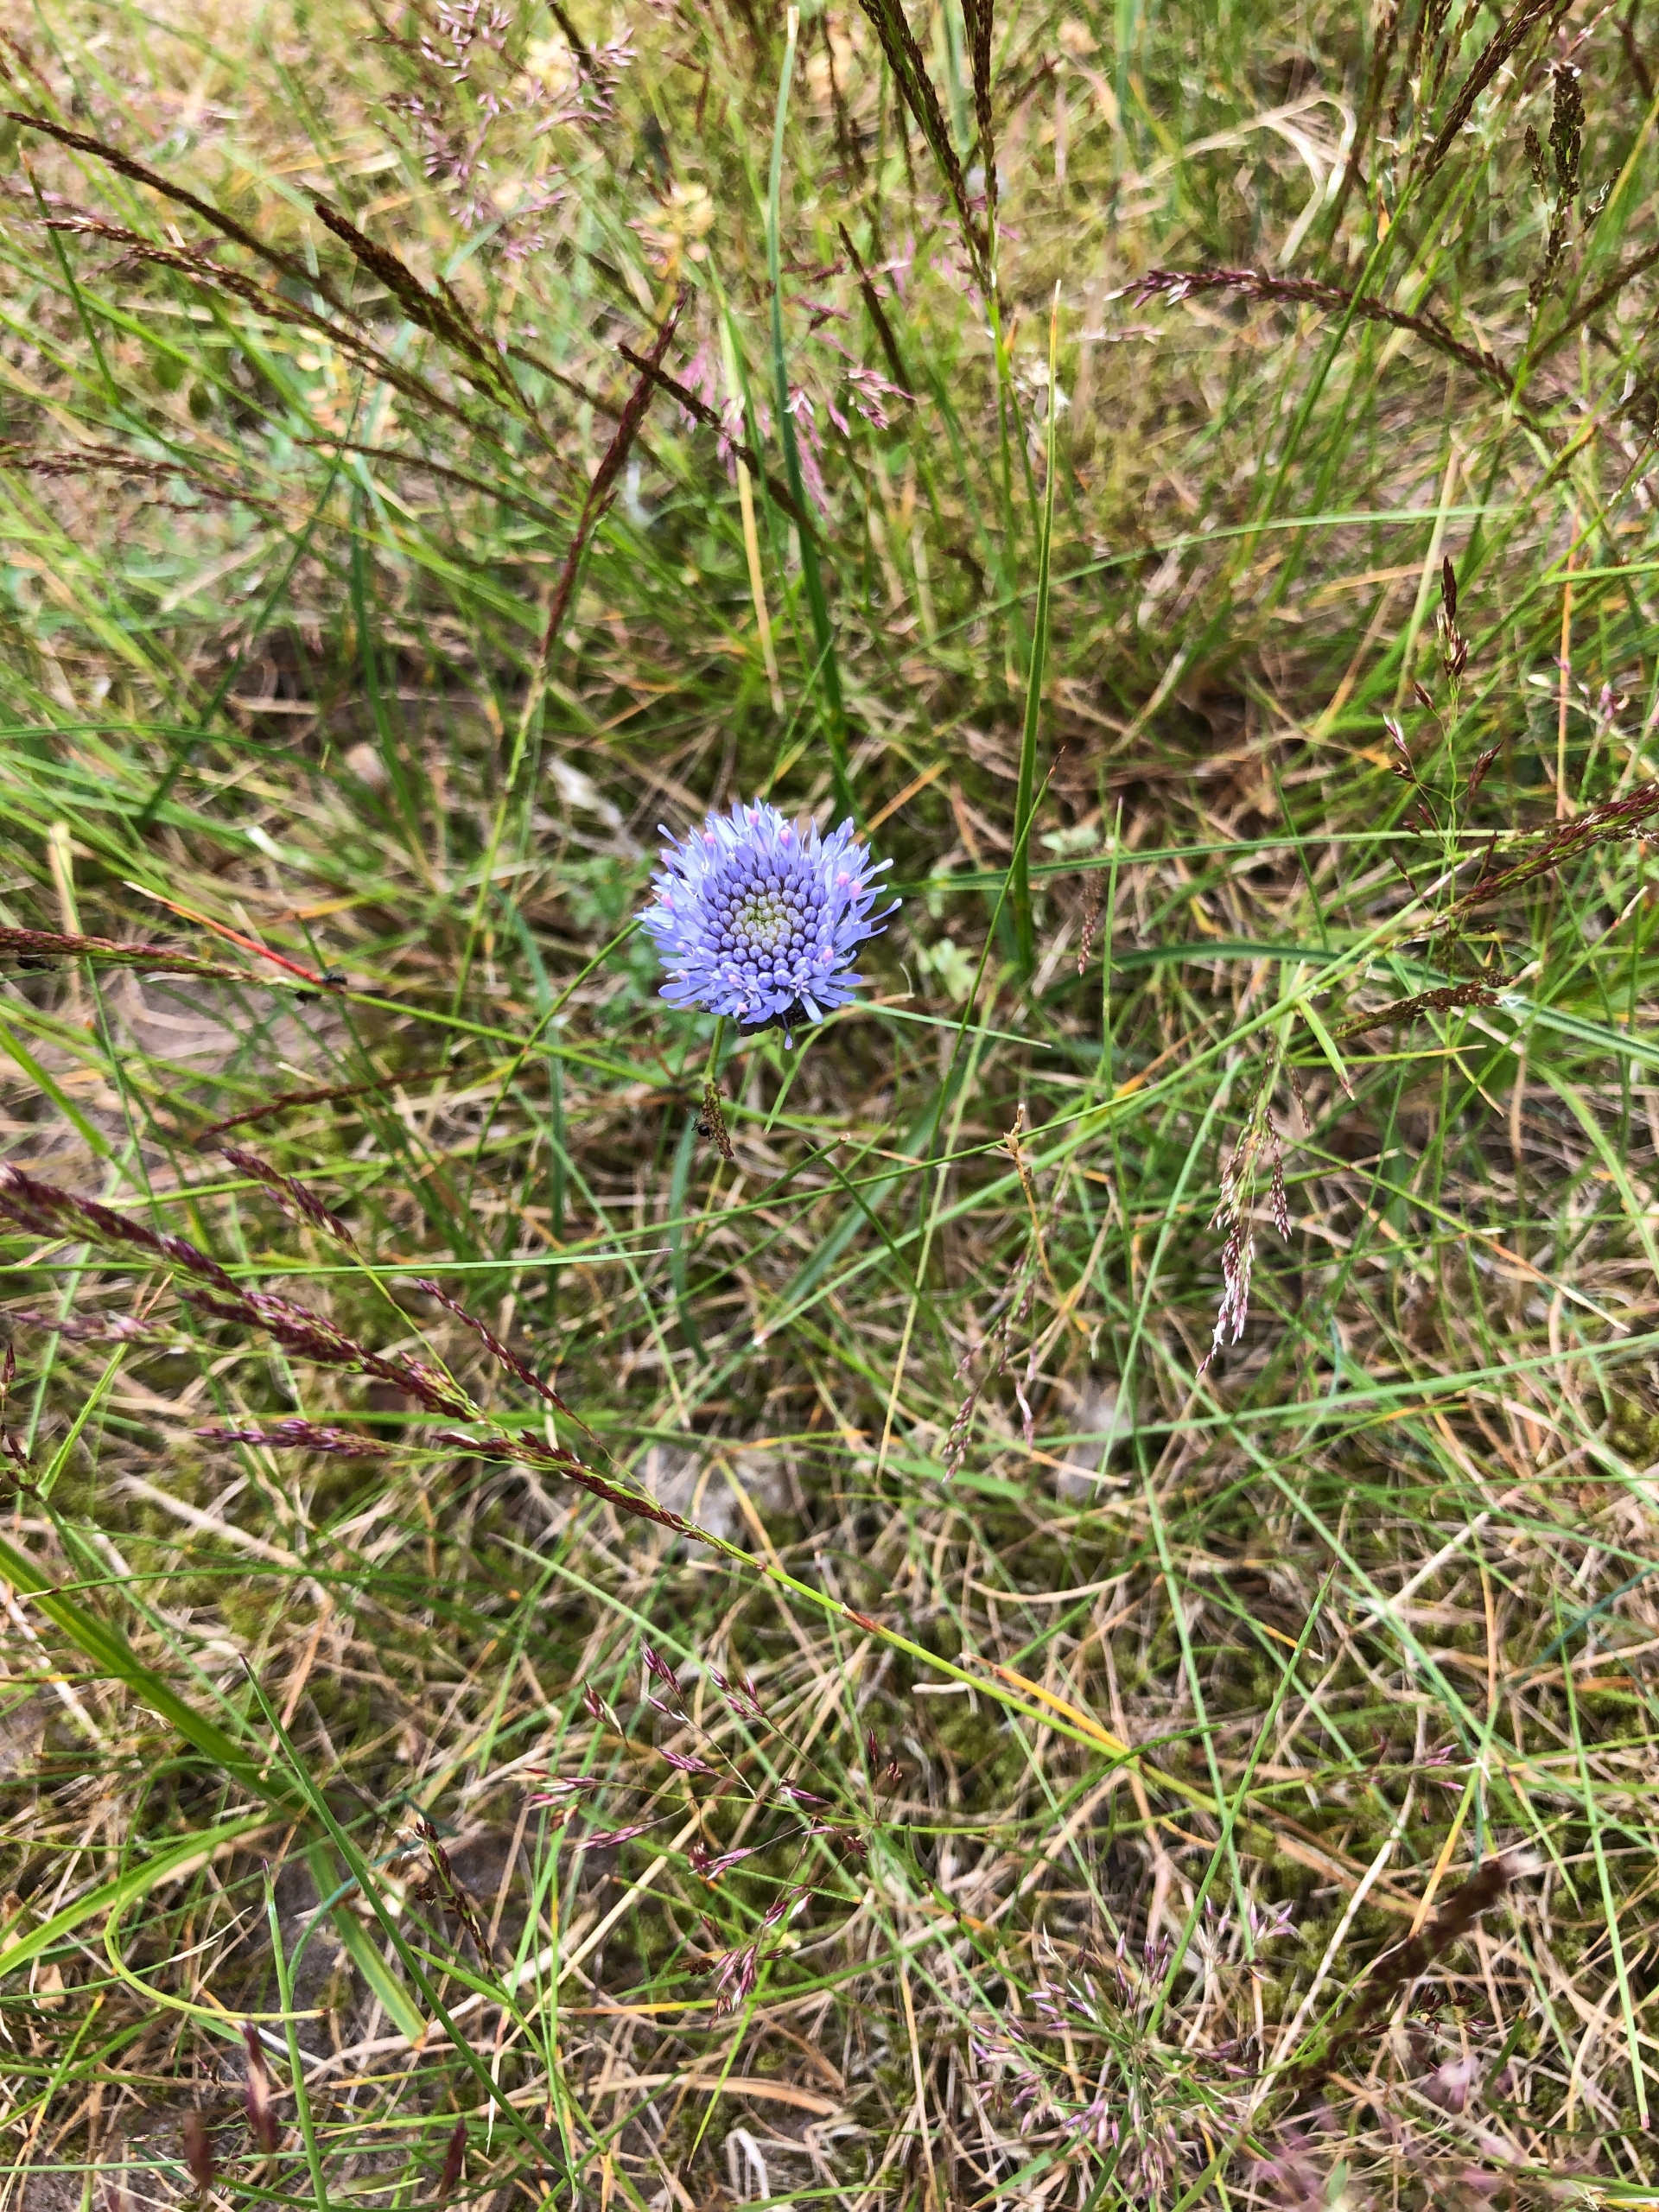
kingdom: Plantae
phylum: Tracheophyta
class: Magnoliopsida
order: Asterales
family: Campanulaceae
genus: Jasione
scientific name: Jasione montana
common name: Blåmunke
